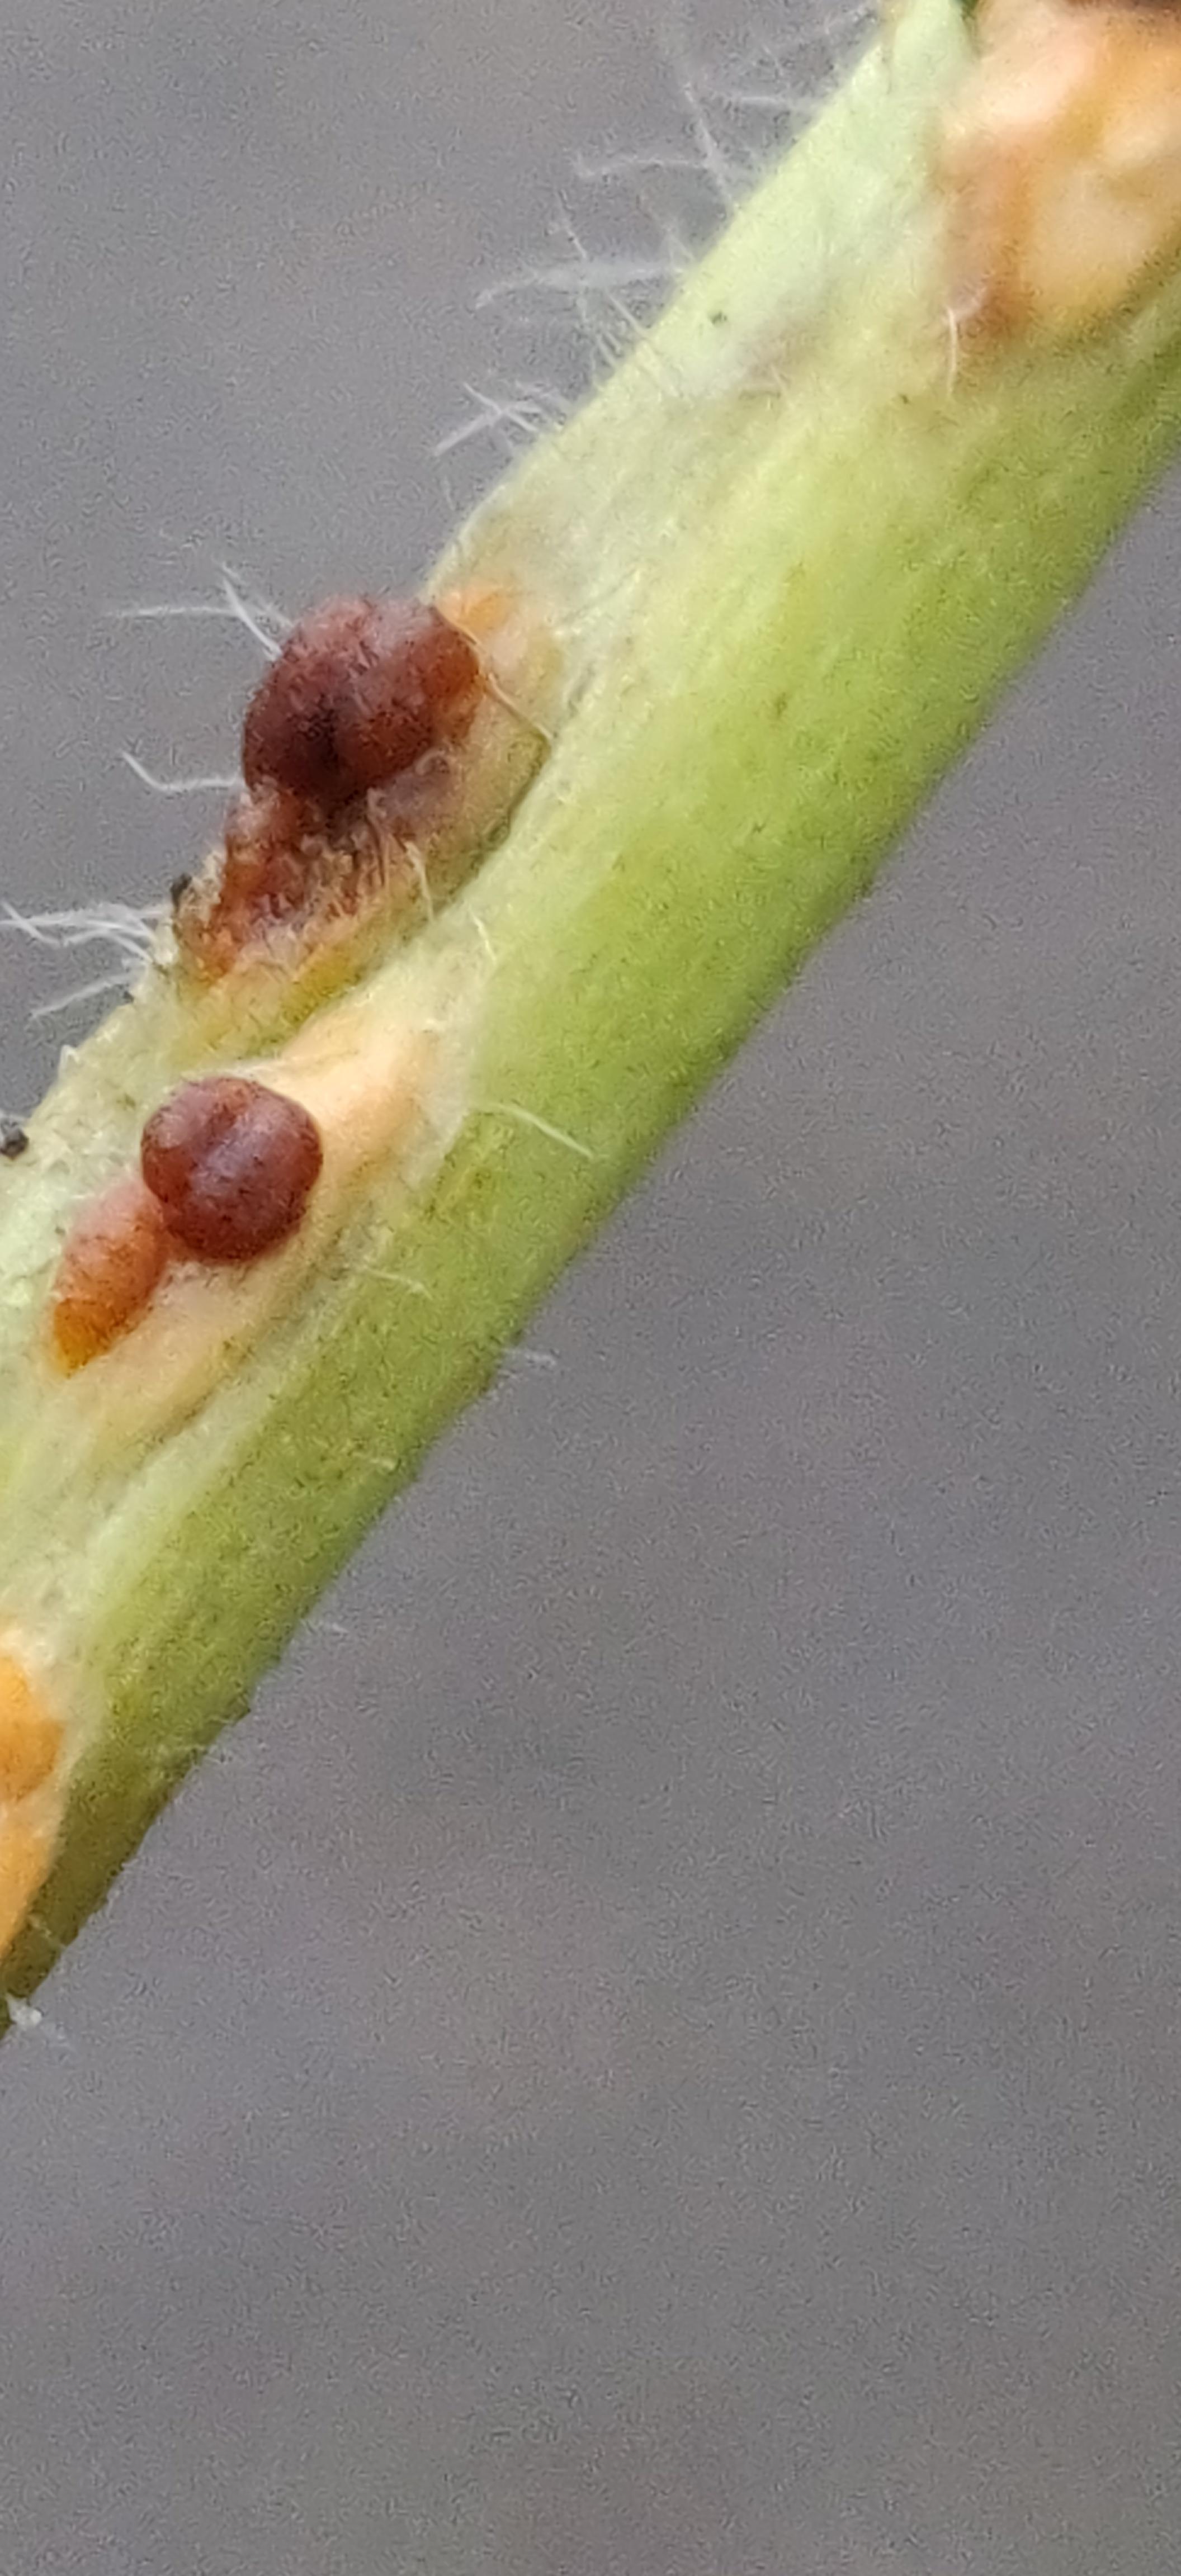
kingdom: Fungi
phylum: Basidiomycota
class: Pucciniomycetes
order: Pucciniales
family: Pucciniaceae
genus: Puccinia
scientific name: Puccinia malvacearum
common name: stokrose-tvecellerust
